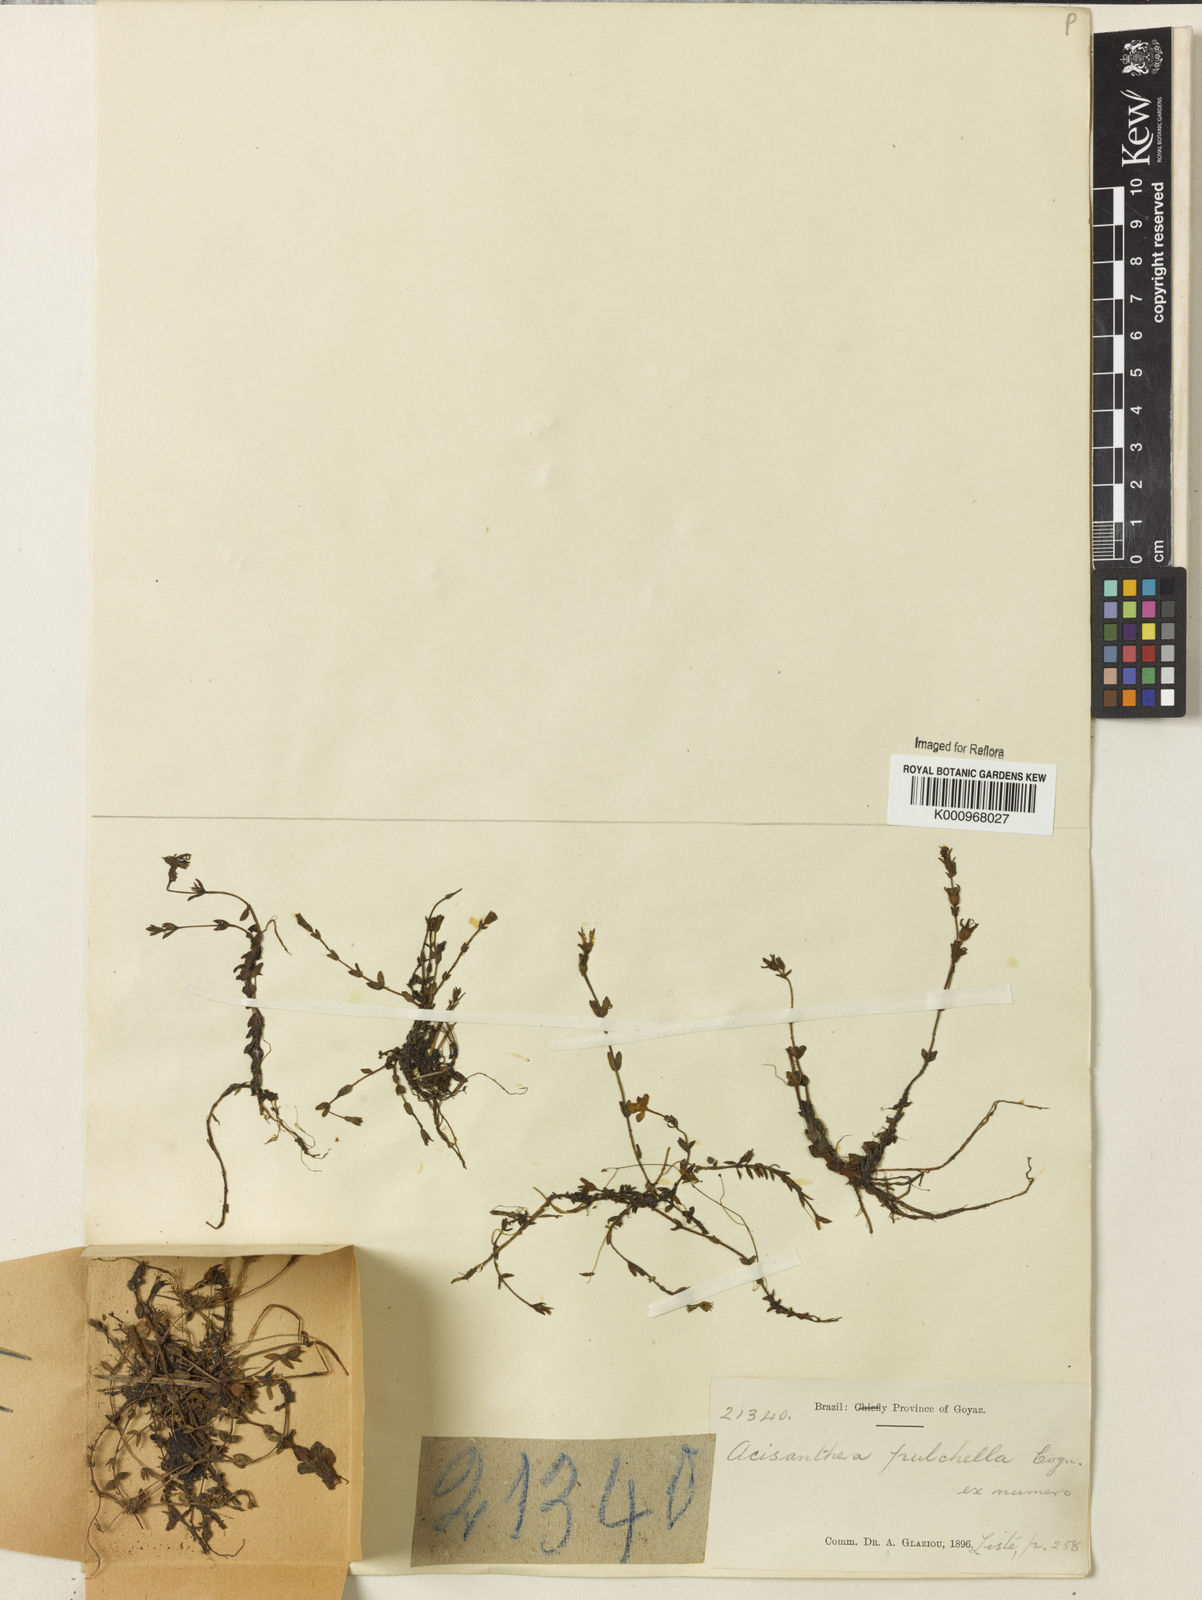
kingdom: Plantae
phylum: Tracheophyta
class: Magnoliopsida
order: Myrtales
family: Melastomataceae
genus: Acisanthera
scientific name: Acisanthera pulchella
